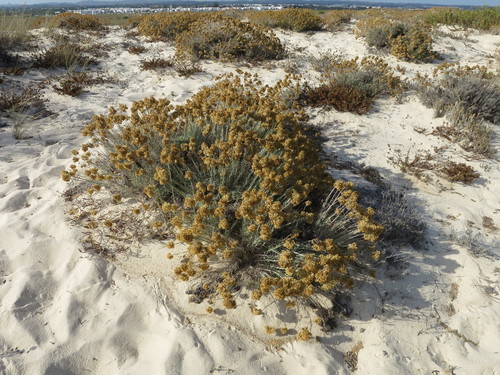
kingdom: Plantae
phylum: Tracheophyta
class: Magnoliopsida
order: Asterales
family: Asteraceae
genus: Helichrysum
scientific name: Helichrysum serotinum
